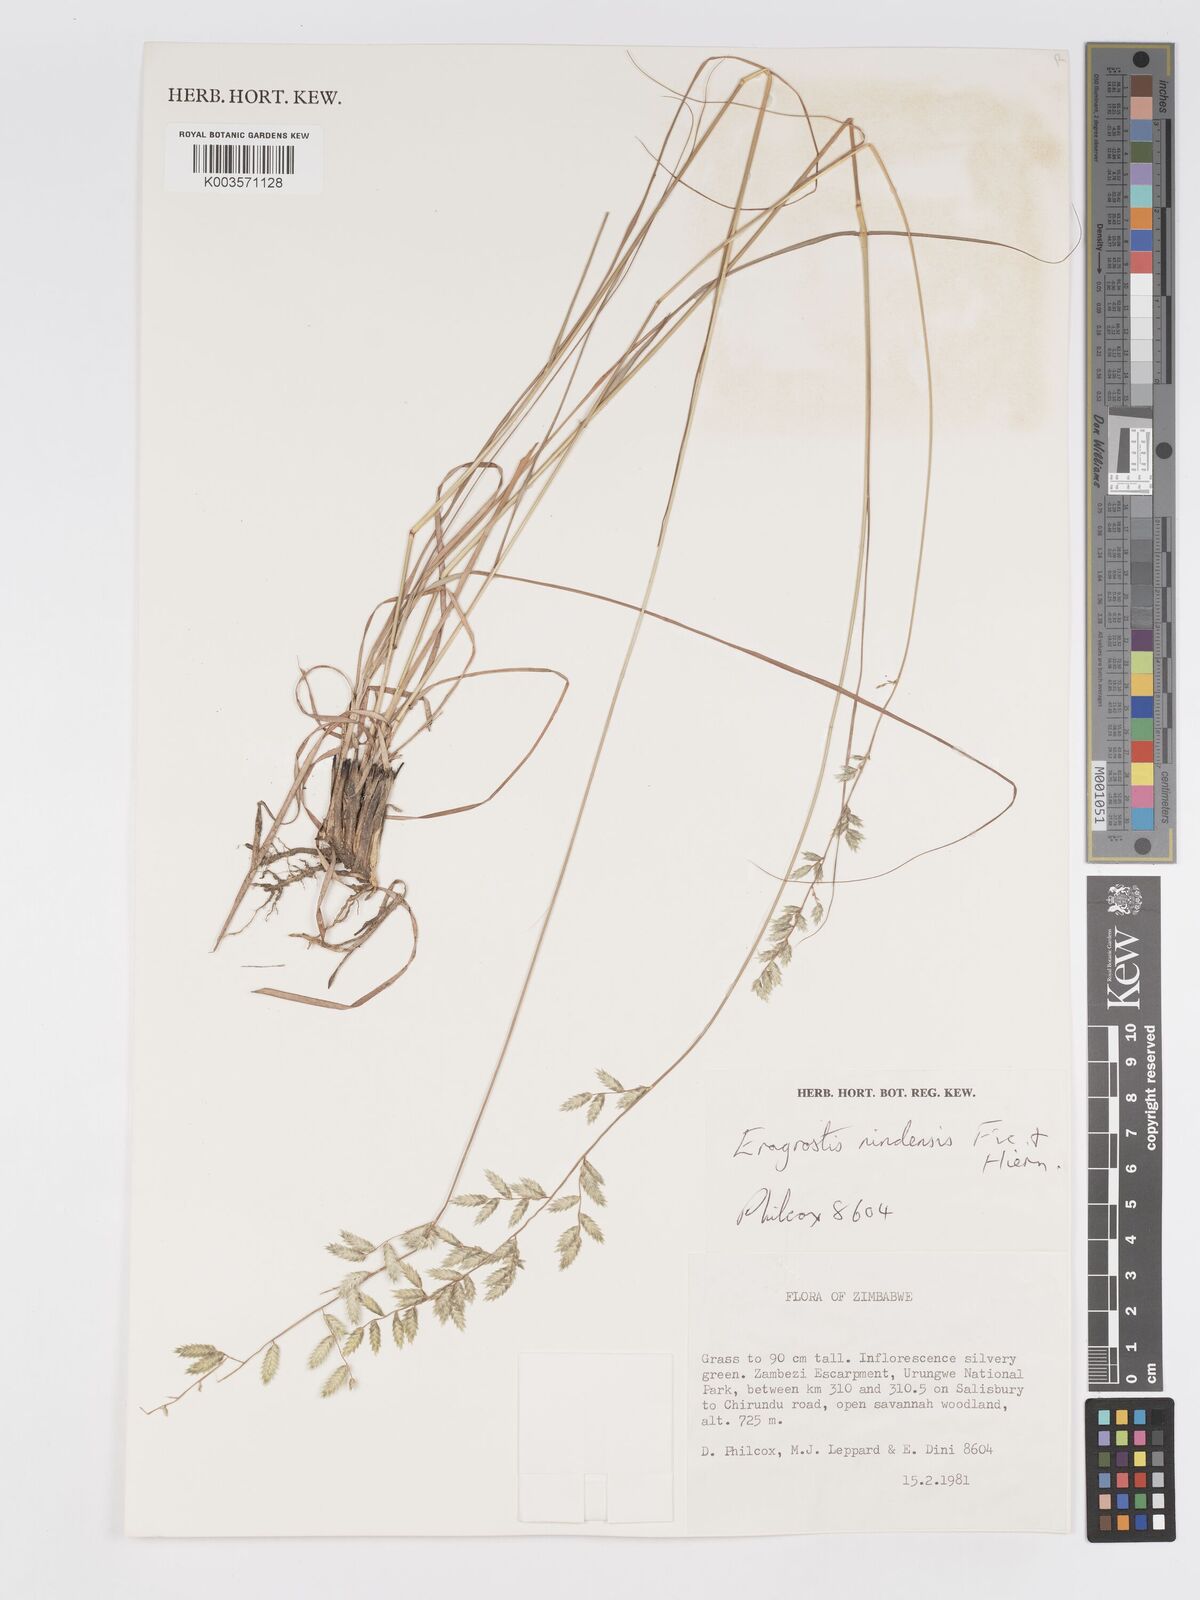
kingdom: Plantae
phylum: Tracheophyta
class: Liliopsida
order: Poales
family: Poaceae
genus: Eragrostis
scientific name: Eragrostis nindensis
